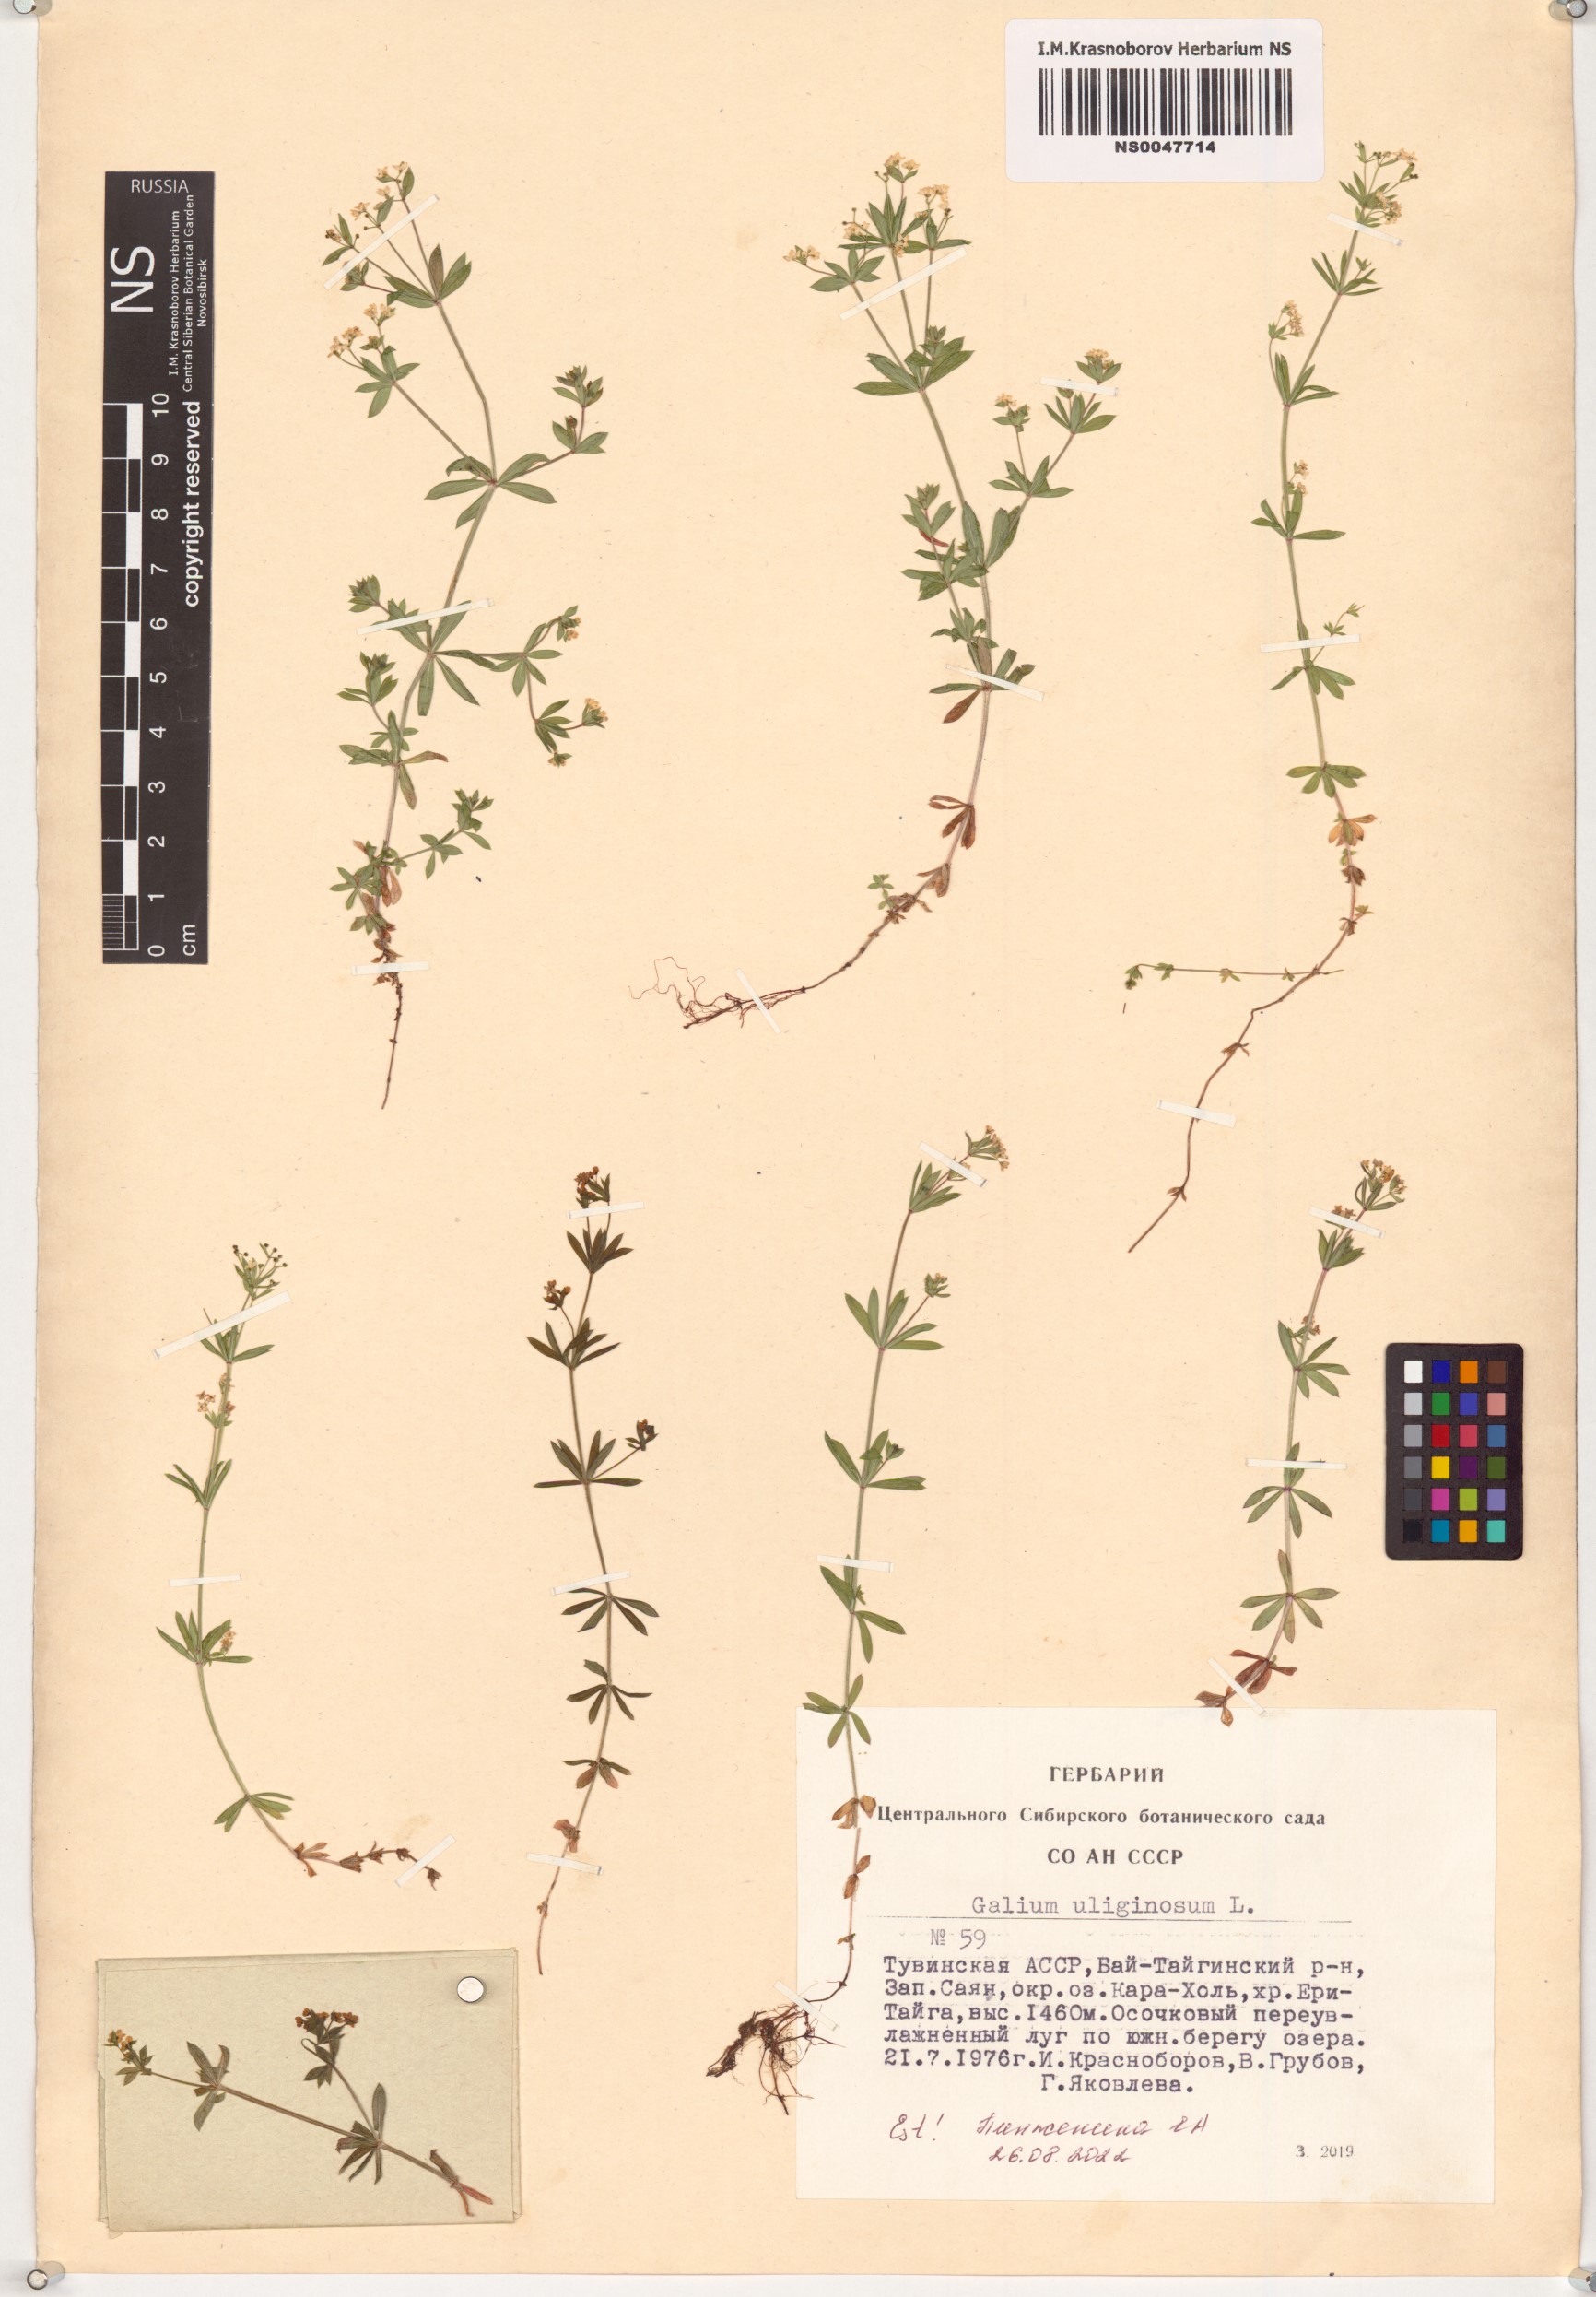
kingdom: Plantae
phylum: Tracheophyta
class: Magnoliopsida
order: Gentianales
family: Rubiaceae
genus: Galium
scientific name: Galium uliginosum
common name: Fen bedstraw
